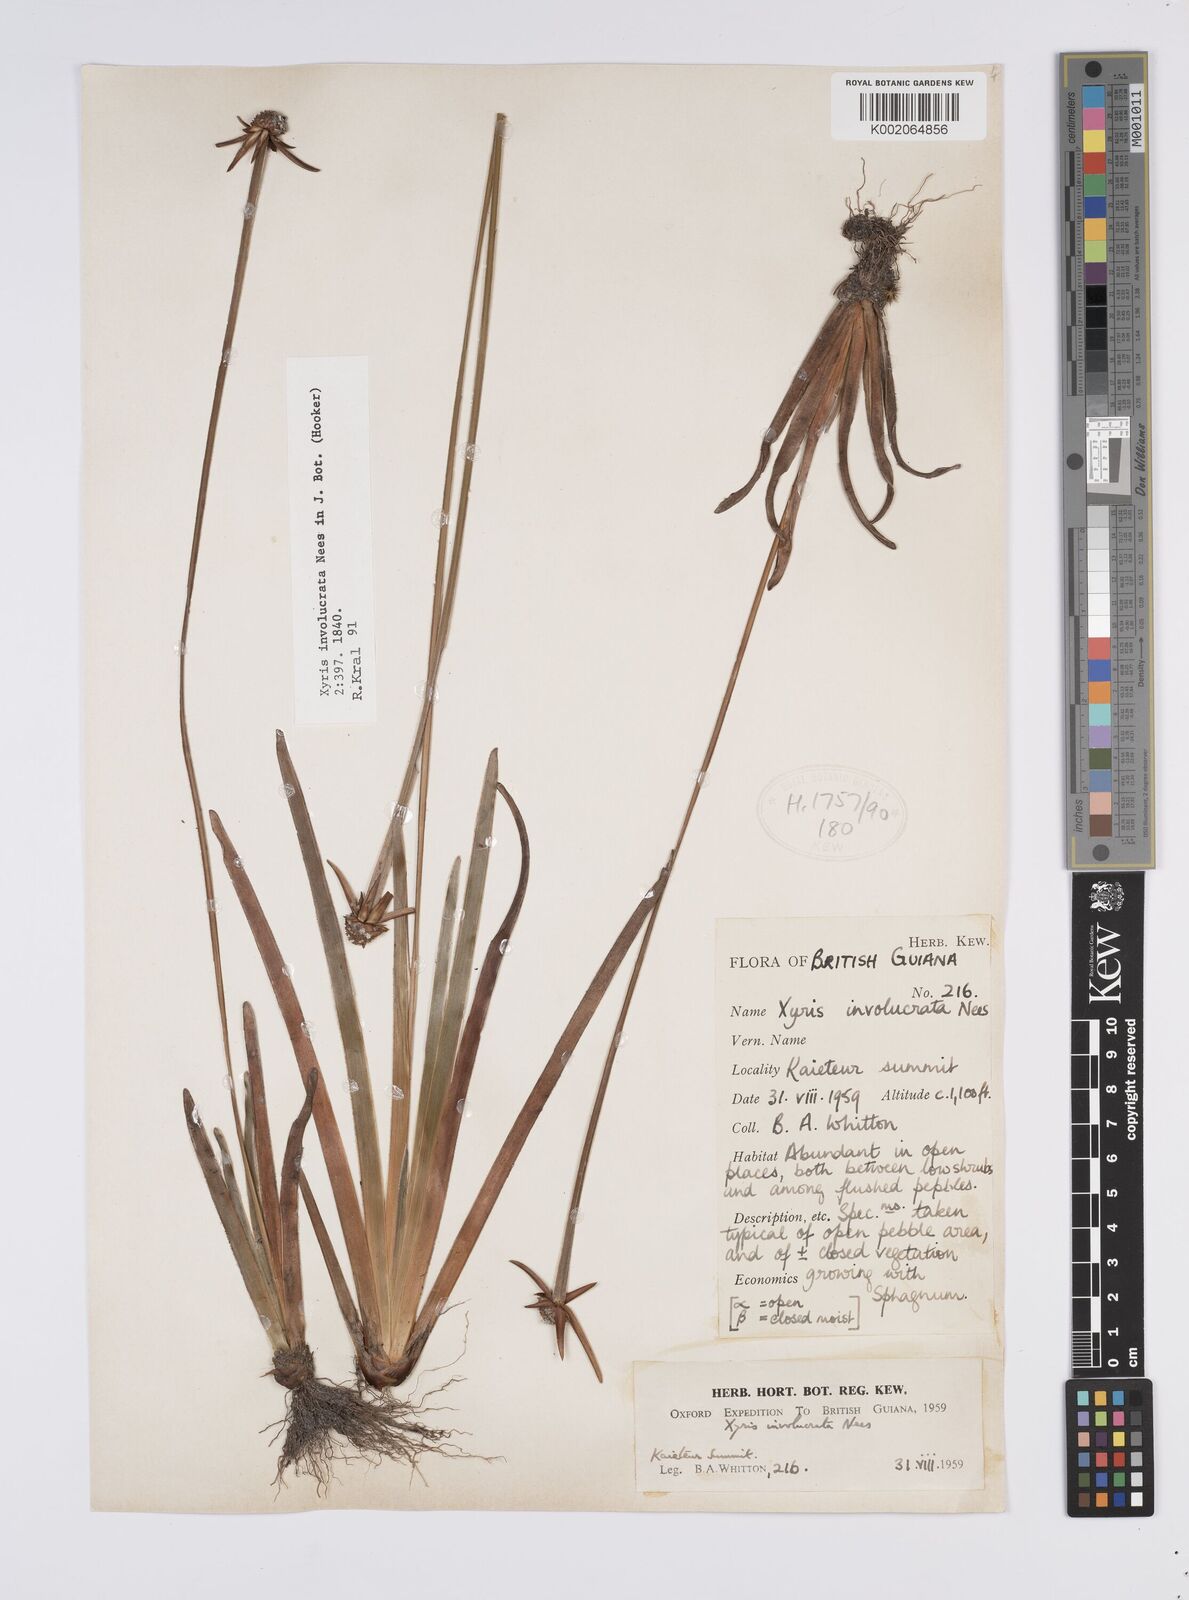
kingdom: Plantae
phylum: Tracheophyta
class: Liliopsida
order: Poales
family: Xyridaceae
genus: Xyris
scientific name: Xyris involucrata
